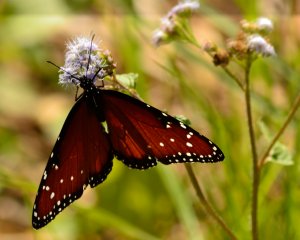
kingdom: Animalia
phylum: Arthropoda
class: Insecta
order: Lepidoptera
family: Nymphalidae
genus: Danaus
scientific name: Danaus gilippus
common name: Queen
